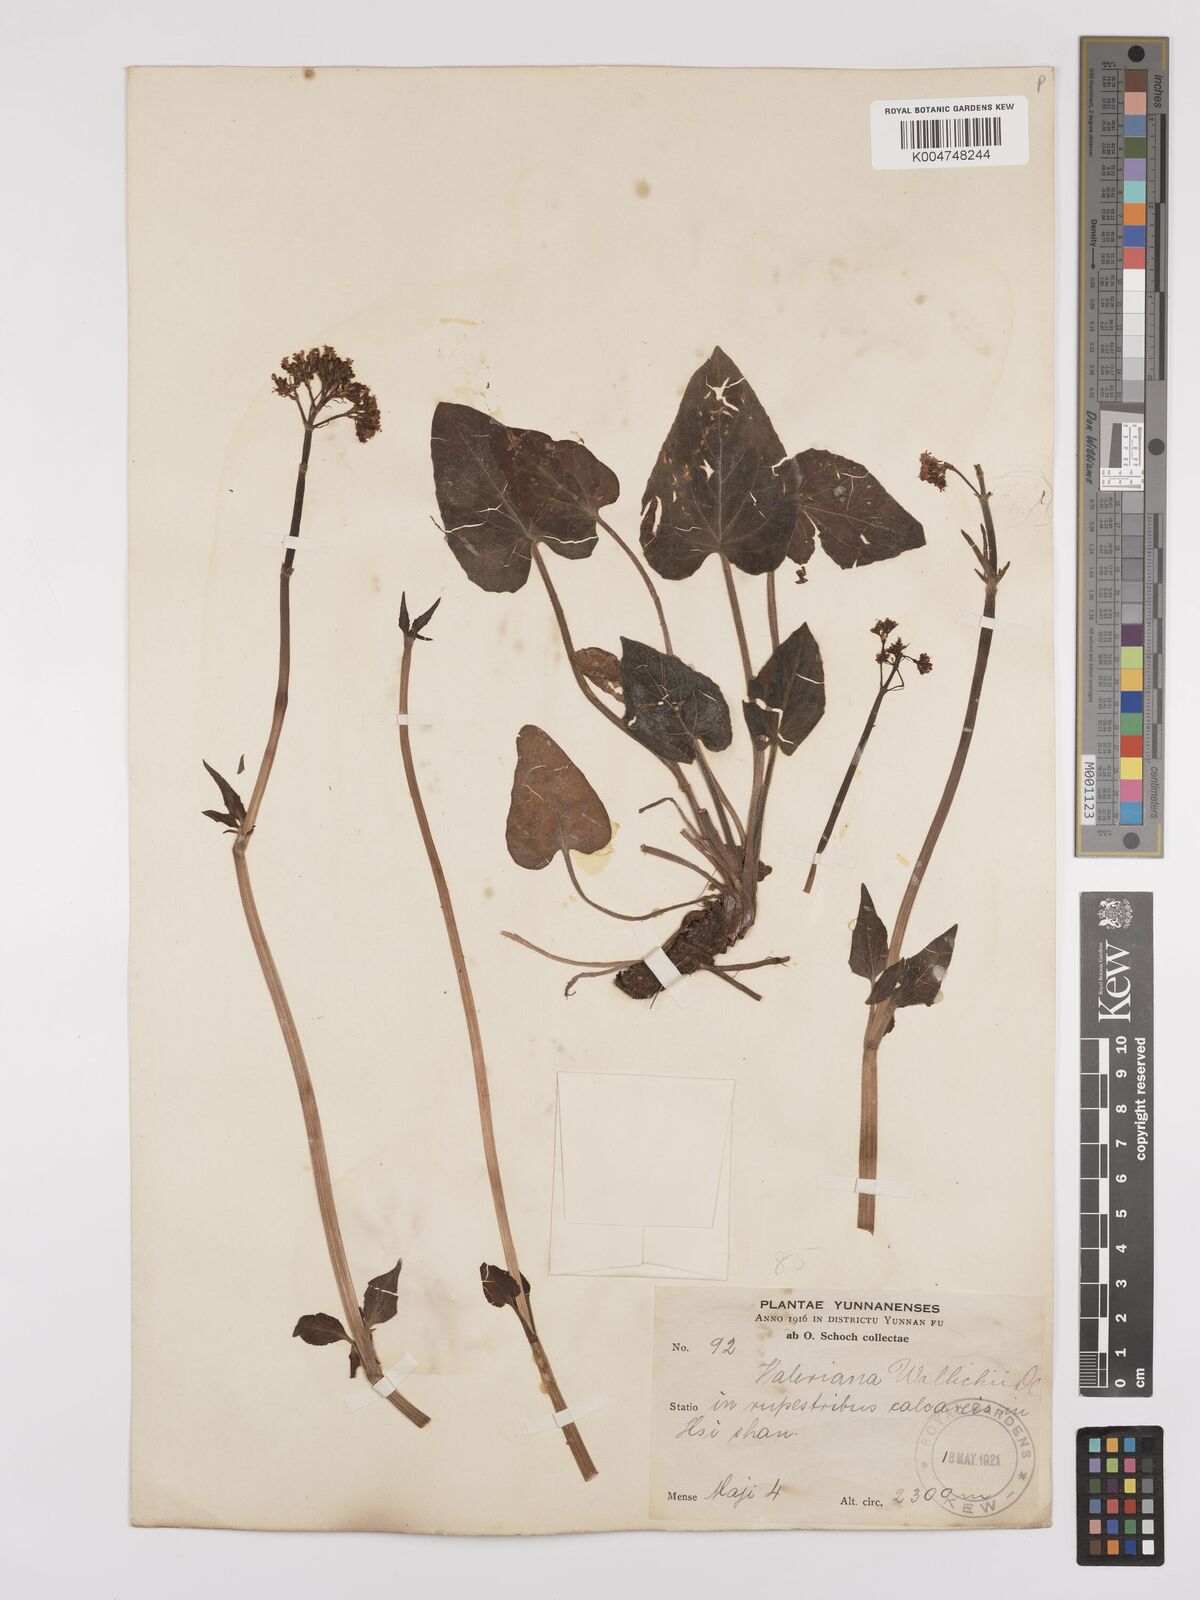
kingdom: Plantae
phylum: Tracheophyta
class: Magnoliopsida
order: Dipsacales
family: Caprifoliaceae
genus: Valeriana
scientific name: Valeriana
